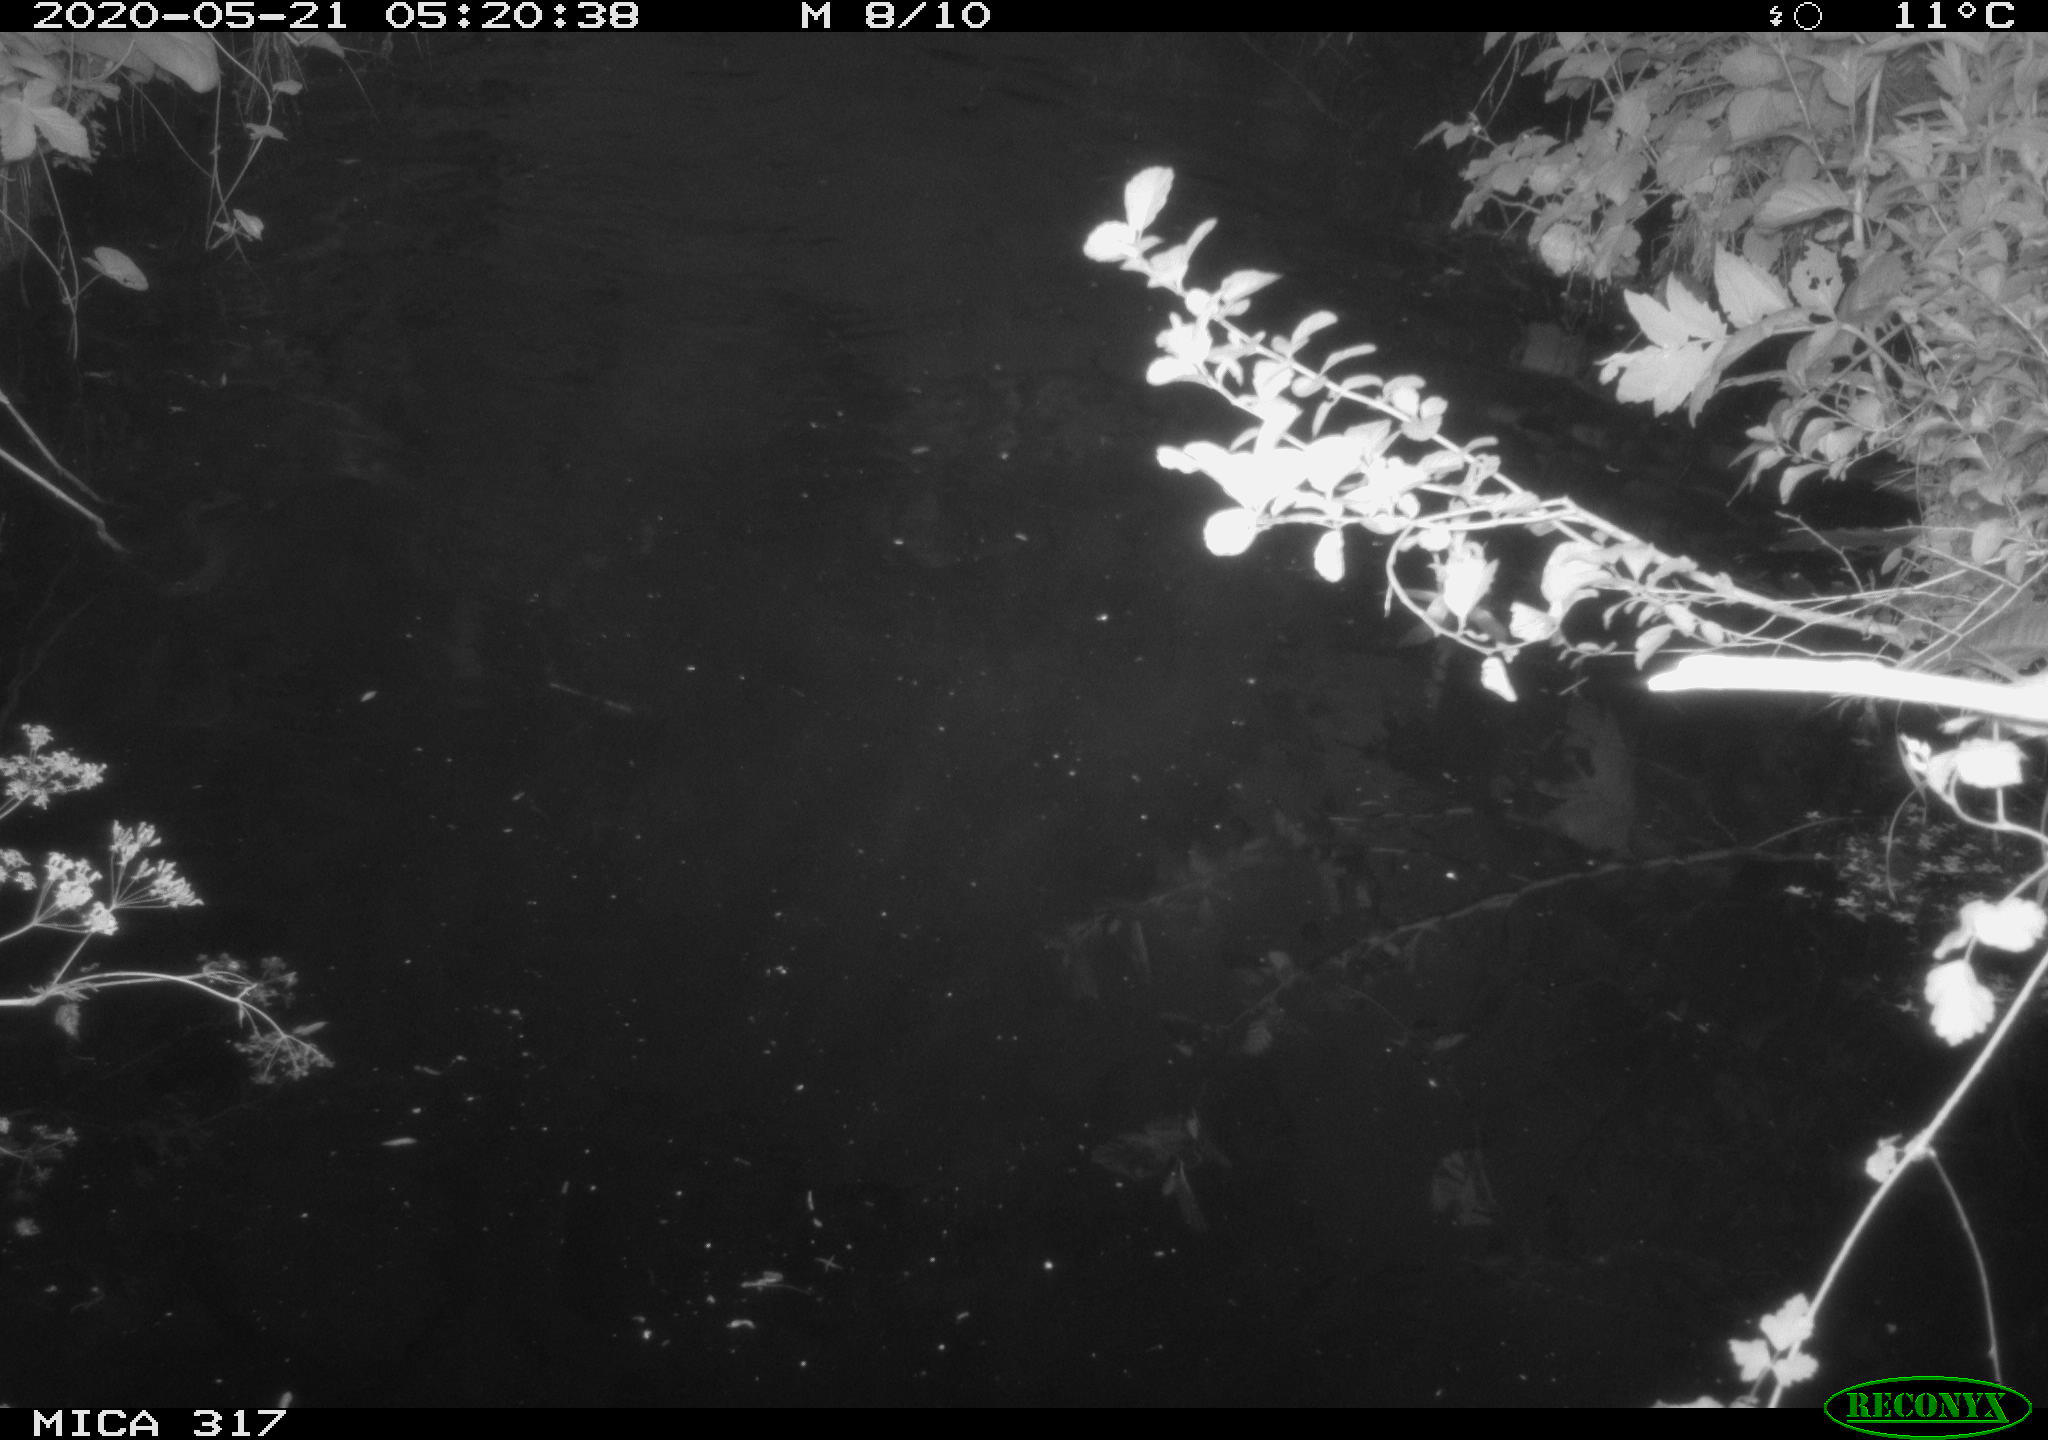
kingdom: Animalia
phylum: Chordata
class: Aves
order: Anseriformes
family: Anatidae
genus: Anas
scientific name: Anas platyrhynchos
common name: Mallard
